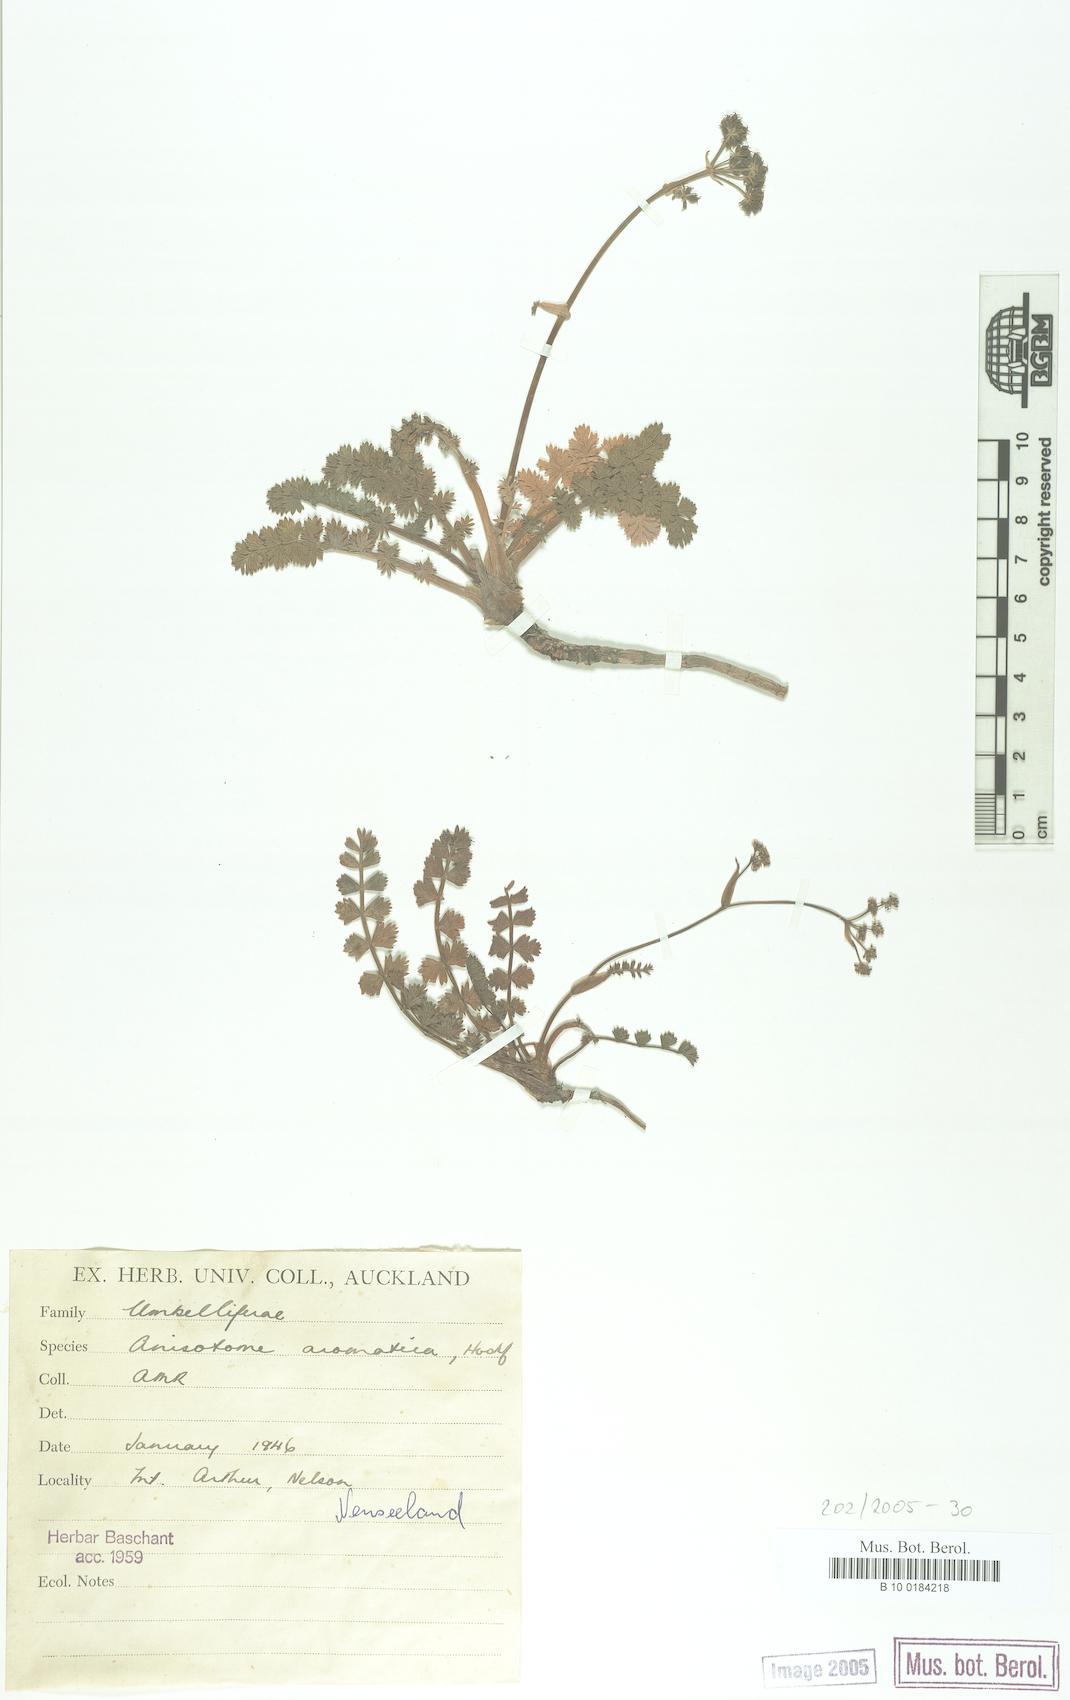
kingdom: Plantae
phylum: Tracheophyta
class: Magnoliopsida
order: Apiales
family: Apiaceae
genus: Anisotome
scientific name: Anisotome aromatica
